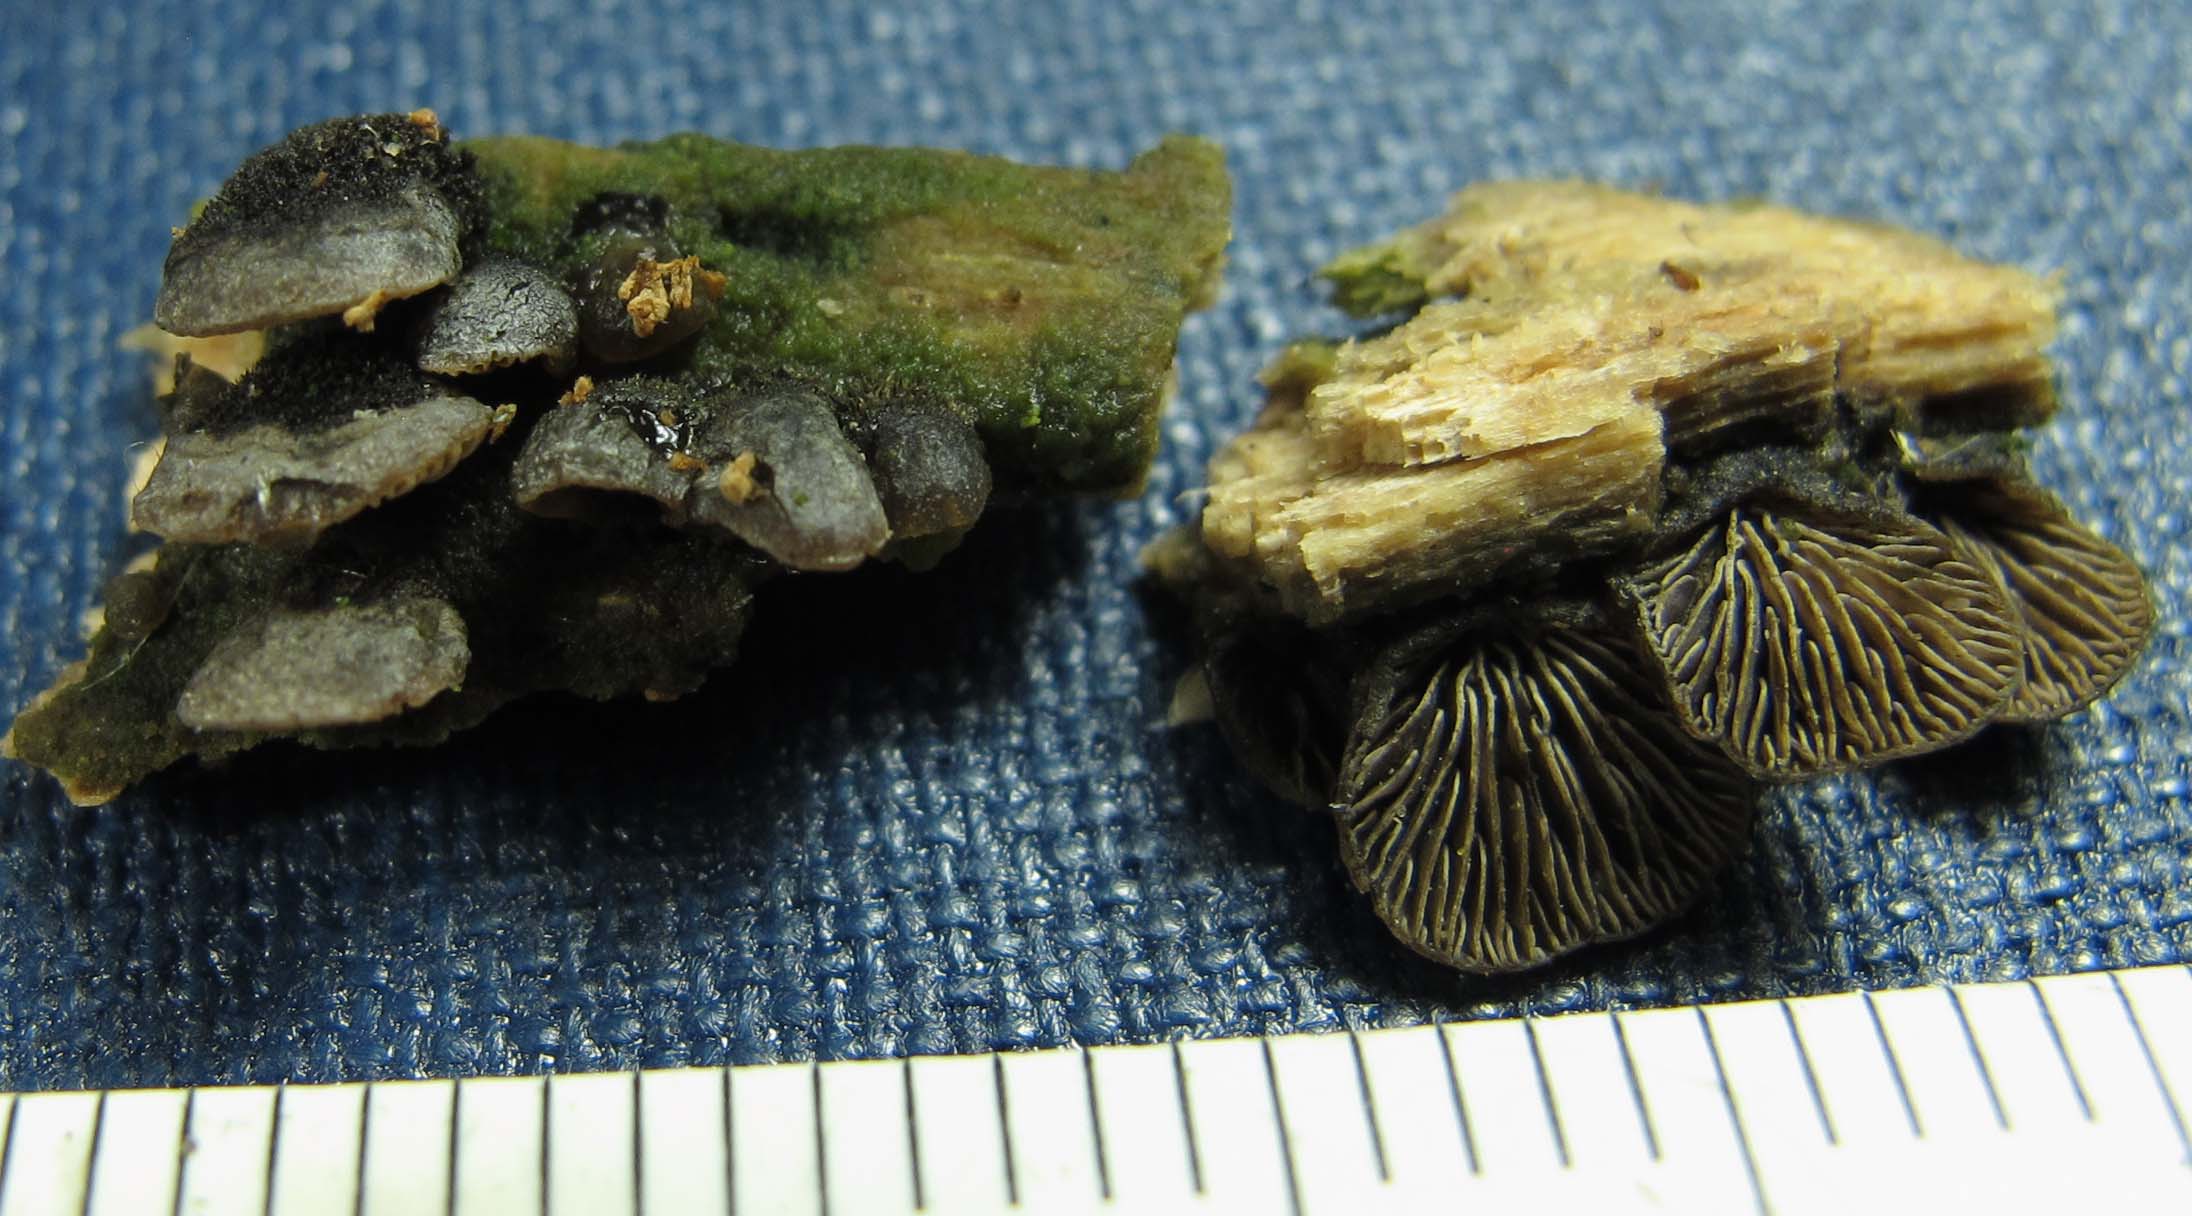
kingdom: Fungi
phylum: Basidiomycota
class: Agaricomycetes
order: Agaricales
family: Pleurotaceae
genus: Resupinatus
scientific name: Resupinatus trichotis
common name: mørkfiltet barkhat
